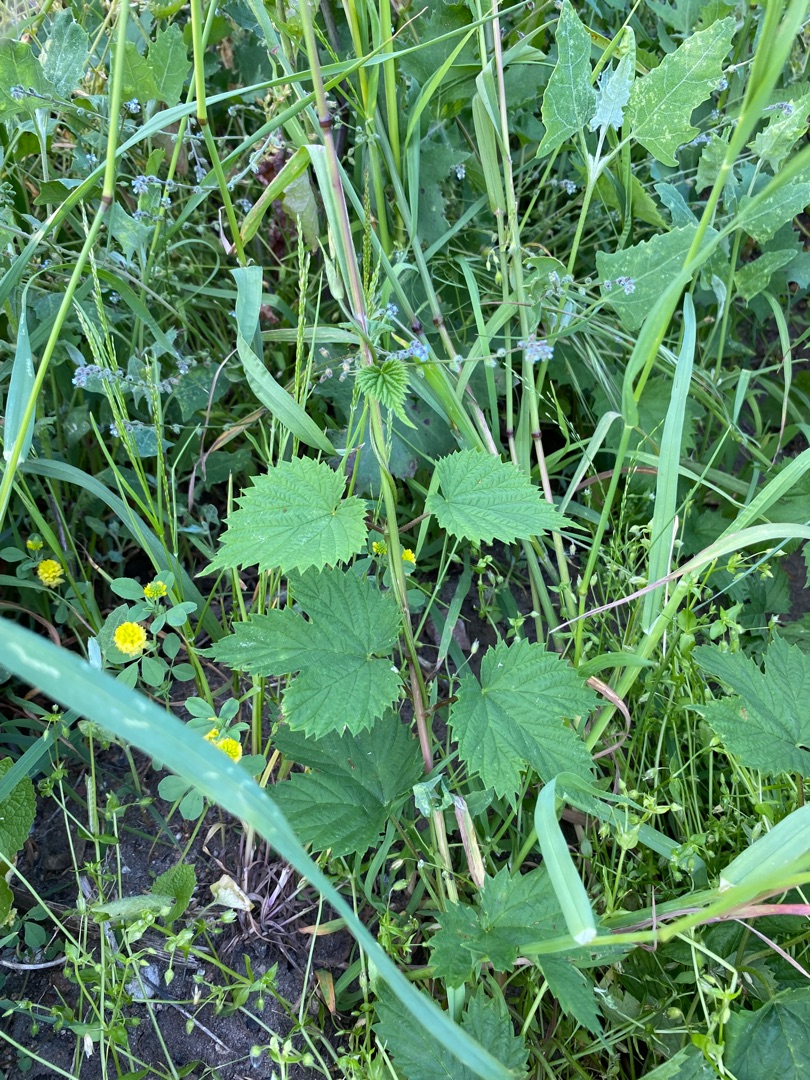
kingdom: Plantae
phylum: Tracheophyta
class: Magnoliopsida
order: Rosales
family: Cannabaceae
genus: Humulus
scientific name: Humulus lupulus
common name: Humle
